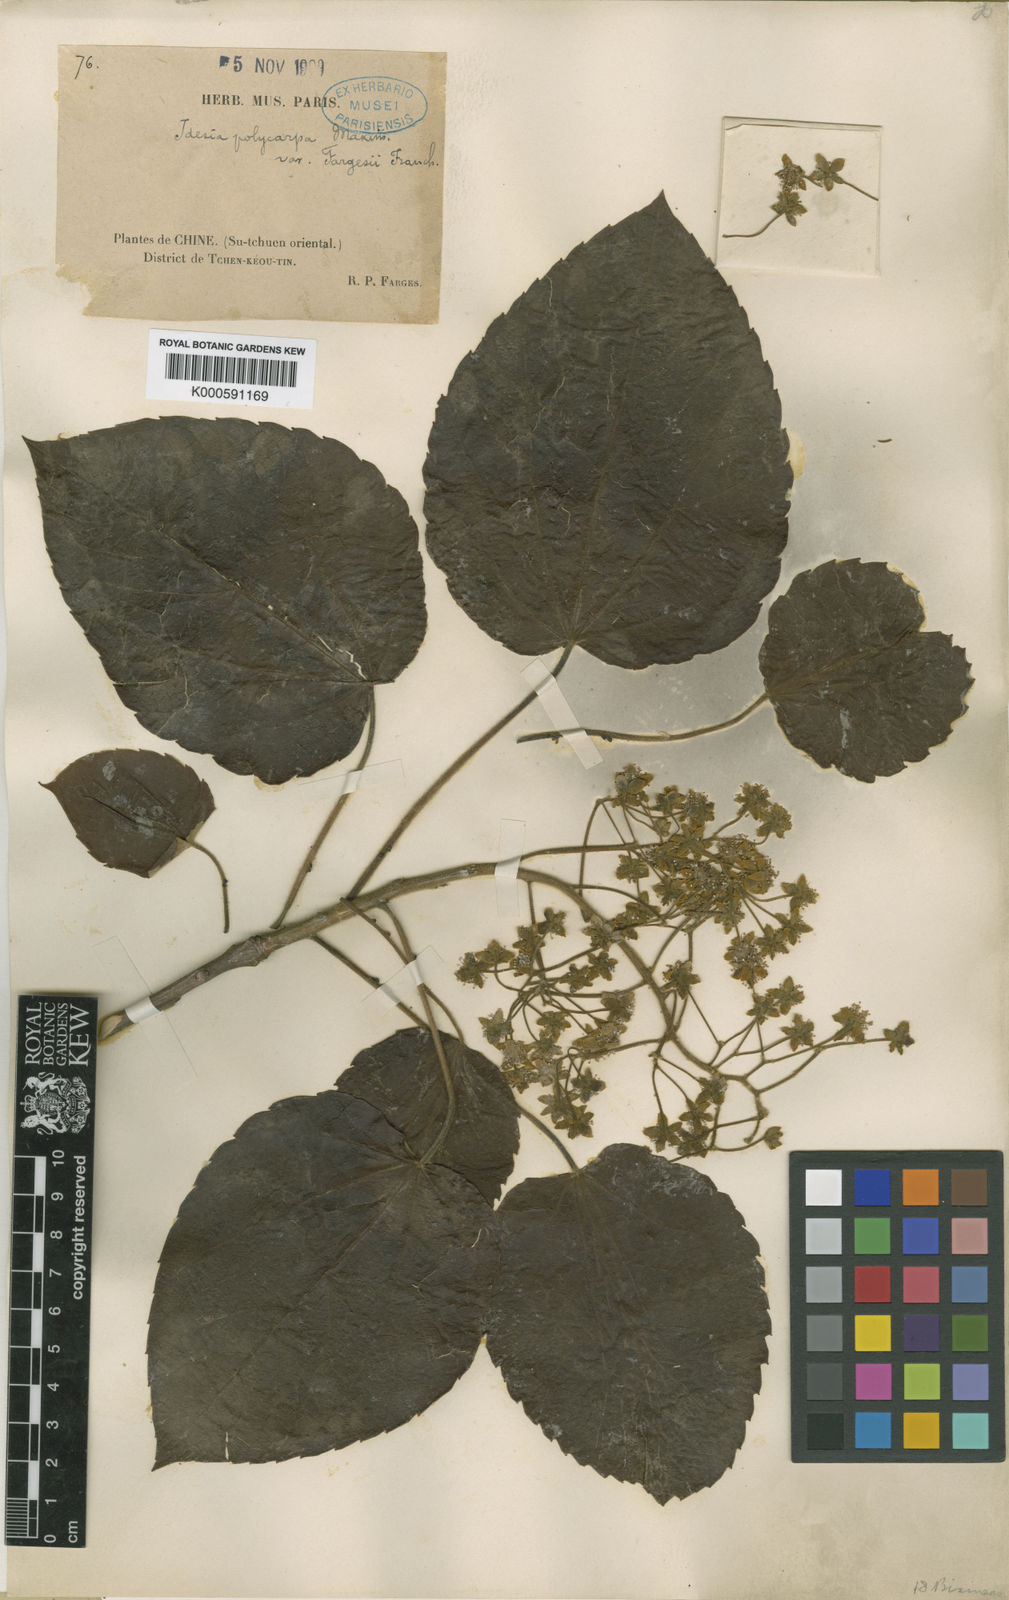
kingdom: Plantae
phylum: Tracheophyta
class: Magnoliopsida
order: Malpighiales
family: Salicaceae
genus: Idesia
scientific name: Idesia polycarpa
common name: Idesia tree
